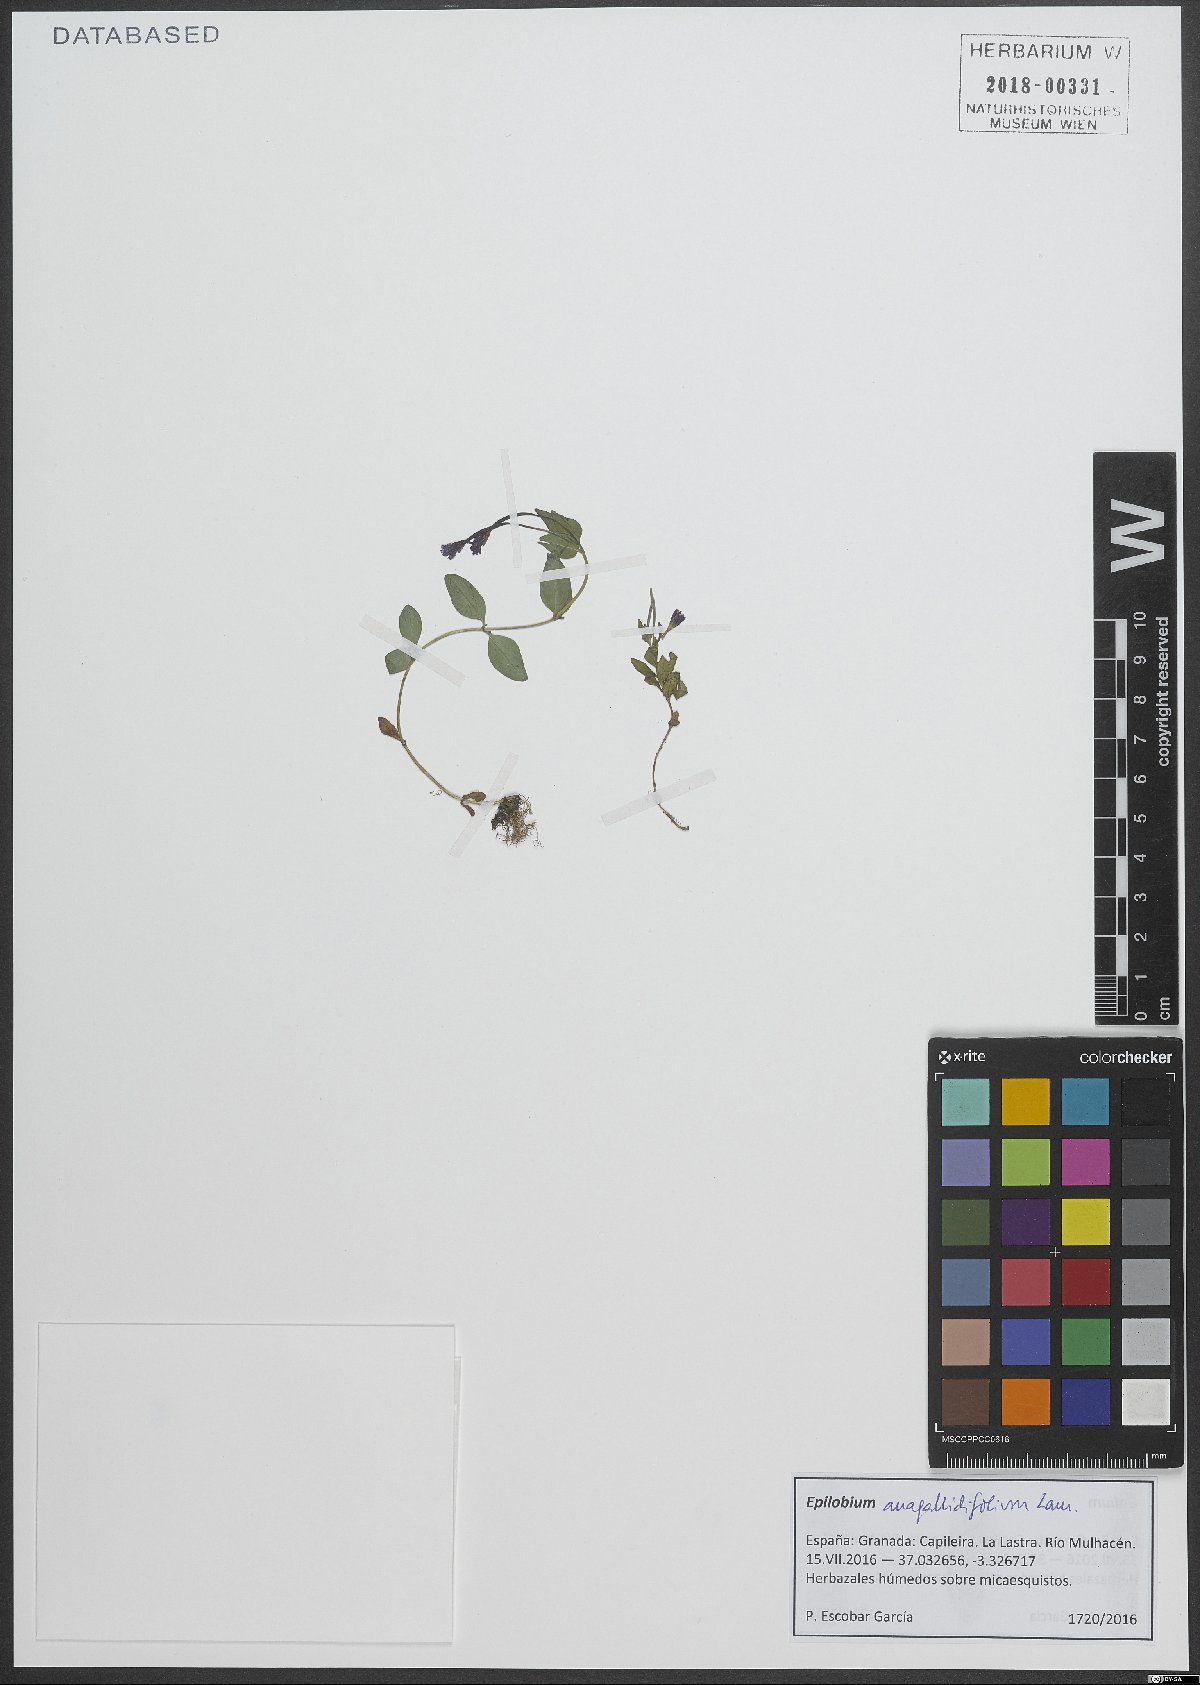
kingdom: Plantae
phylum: Tracheophyta
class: Magnoliopsida
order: Myrtales
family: Onagraceae
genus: Epilobium
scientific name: Epilobium anagallidifolium
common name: Alpine willowherb
